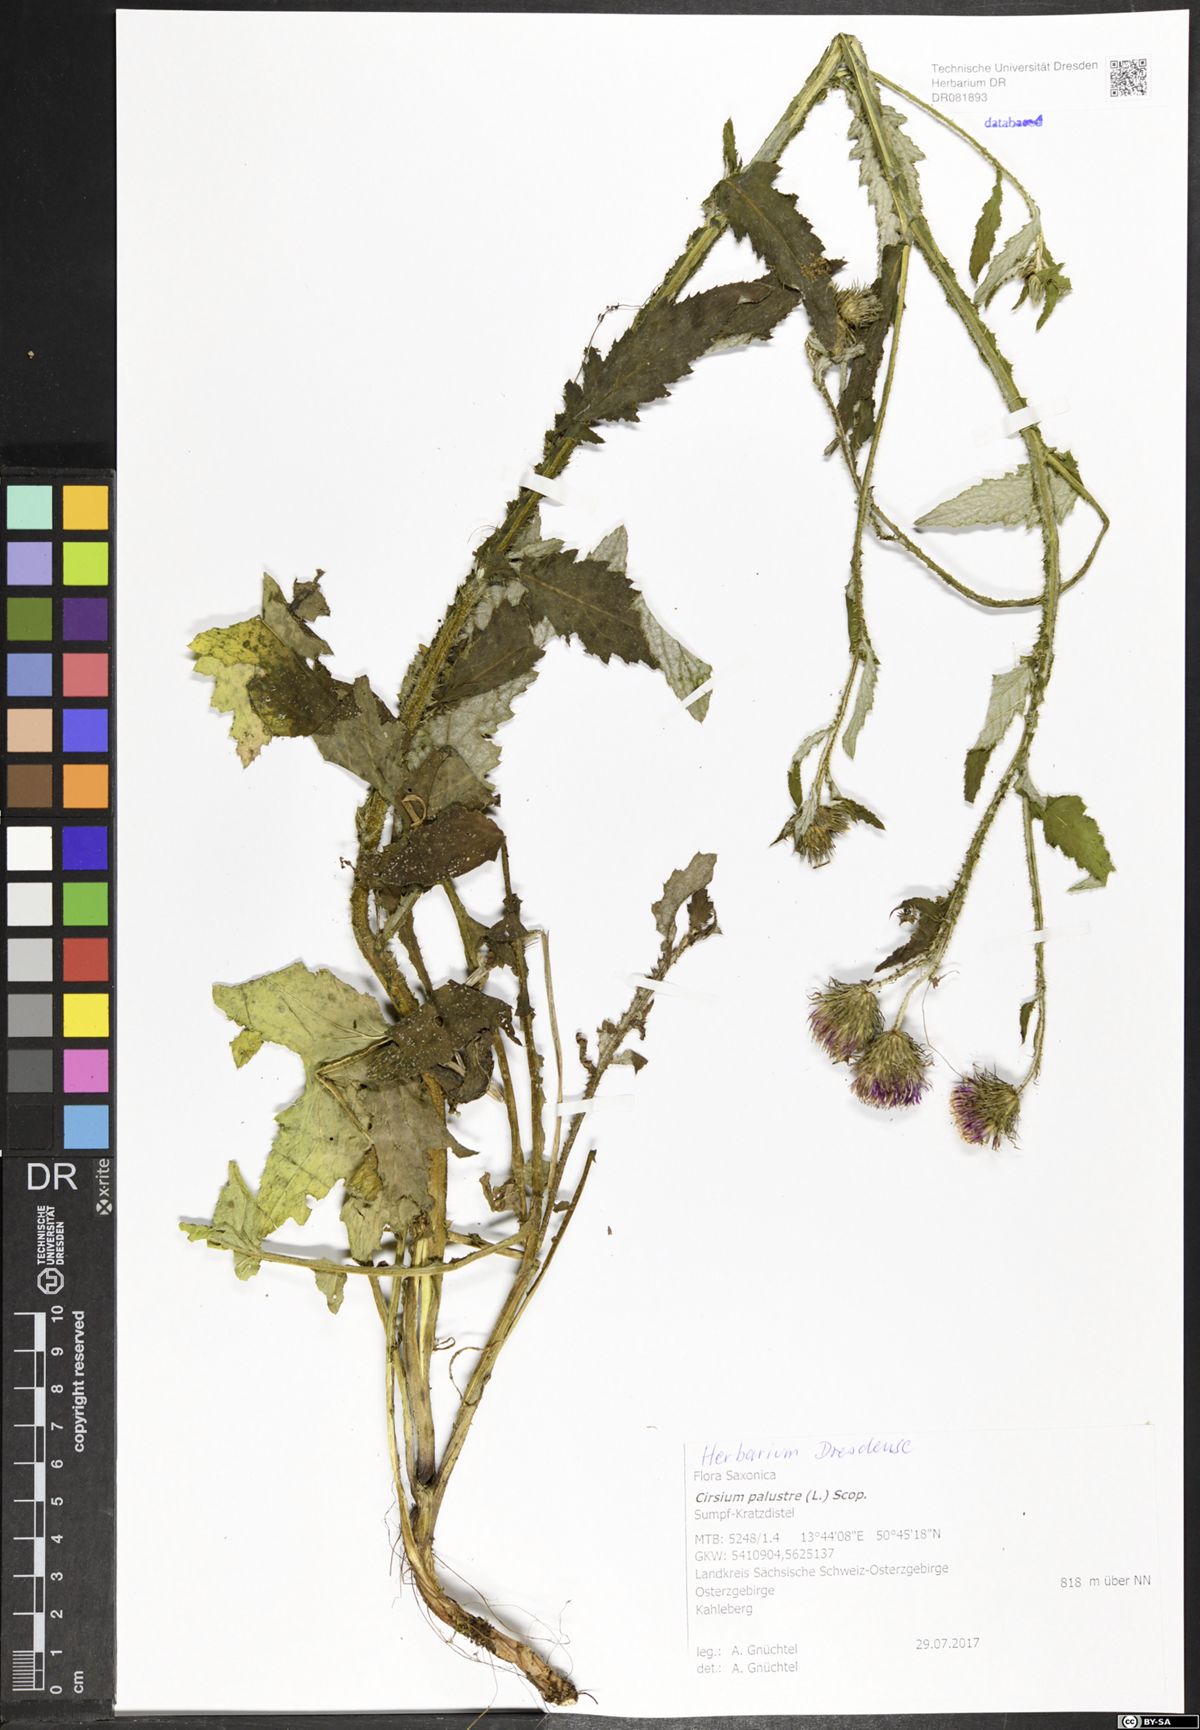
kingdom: Plantae
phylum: Tracheophyta
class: Magnoliopsida
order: Asterales
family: Asteraceae
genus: Cirsium
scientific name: Cirsium palustre
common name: Marsh thistle
